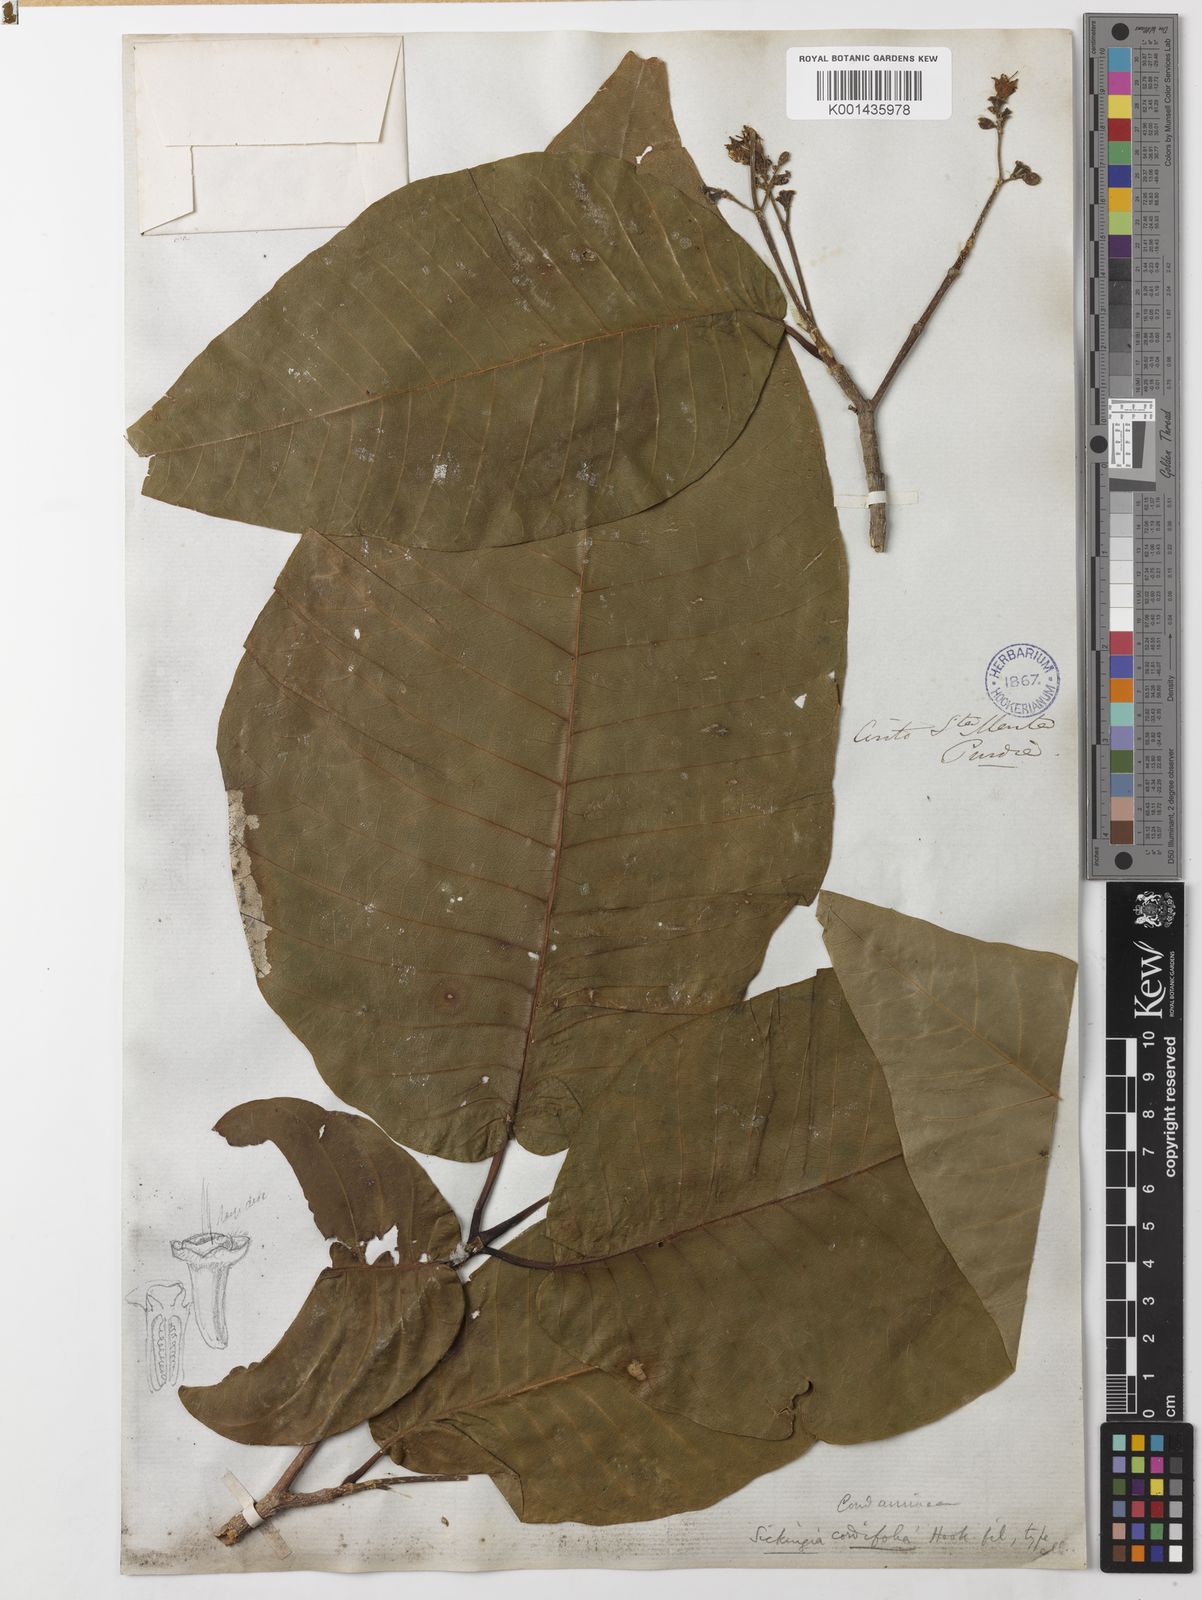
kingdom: Plantae
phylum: Tracheophyta
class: Magnoliopsida
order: Gentianales
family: Rubiaceae
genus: Simira
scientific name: Simira cordifolia
